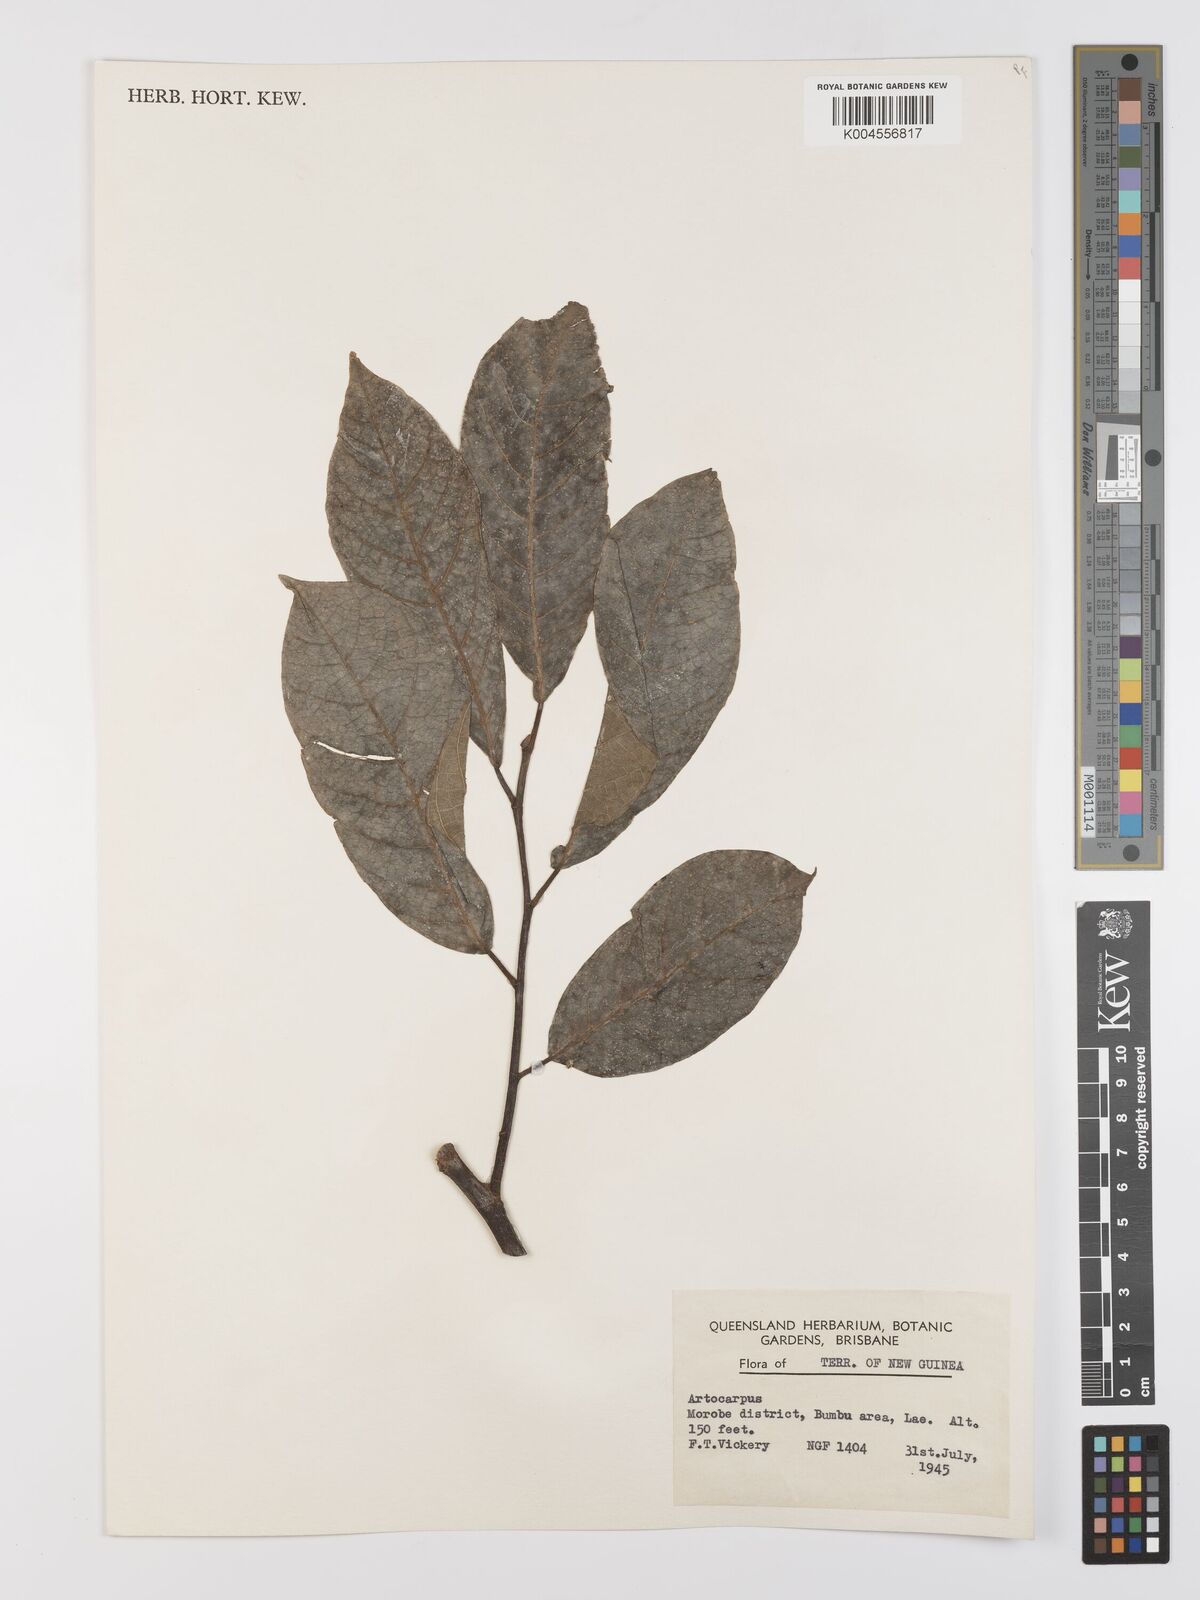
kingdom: Plantae
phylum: Tracheophyta
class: Magnoliopsida
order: Rosales
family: Moraceae
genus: Artocarpus
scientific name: Artocarpus
